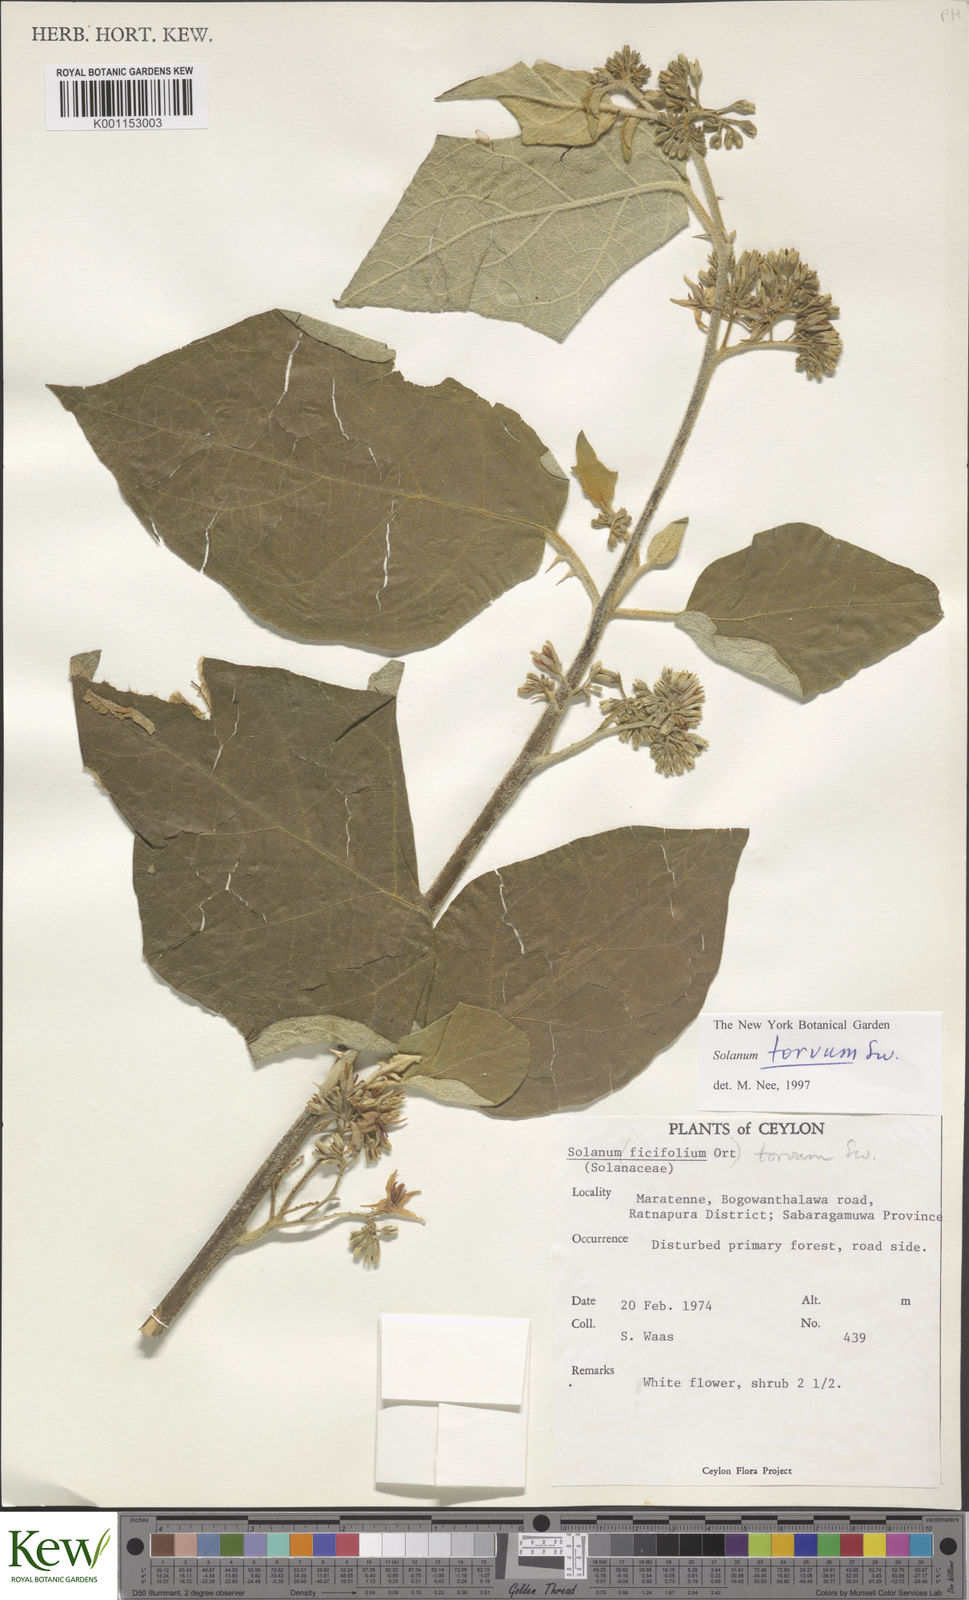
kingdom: Plantae
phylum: Tracheophyta
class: Magnoliopsida
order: Solanales
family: Solanaceae
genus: Solanum
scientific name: Solanum torvum
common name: Turkey berry
